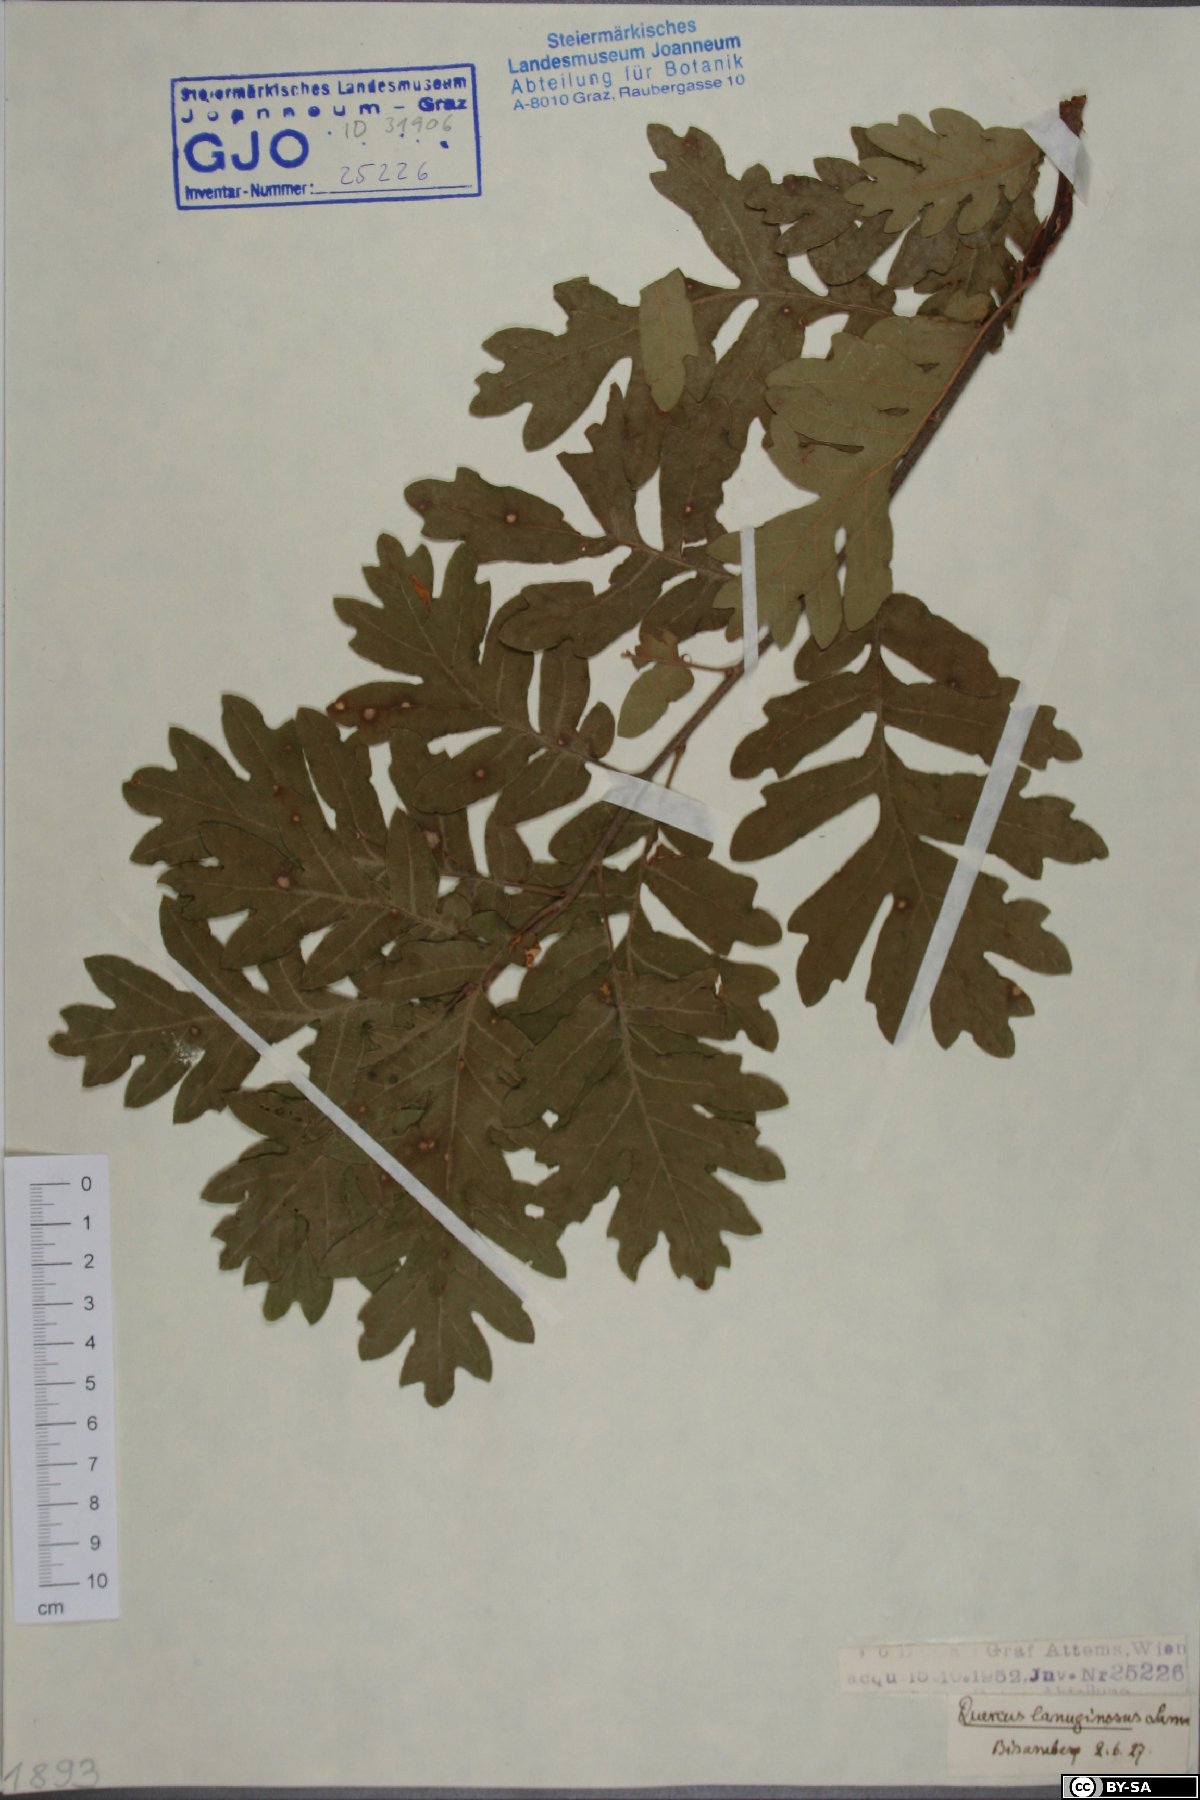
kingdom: Plantae
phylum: Tracheophyta
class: Magnoliopsida
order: Fagales
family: Fagaceae
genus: Quercus
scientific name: Quercus pubescens
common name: Downy oak
